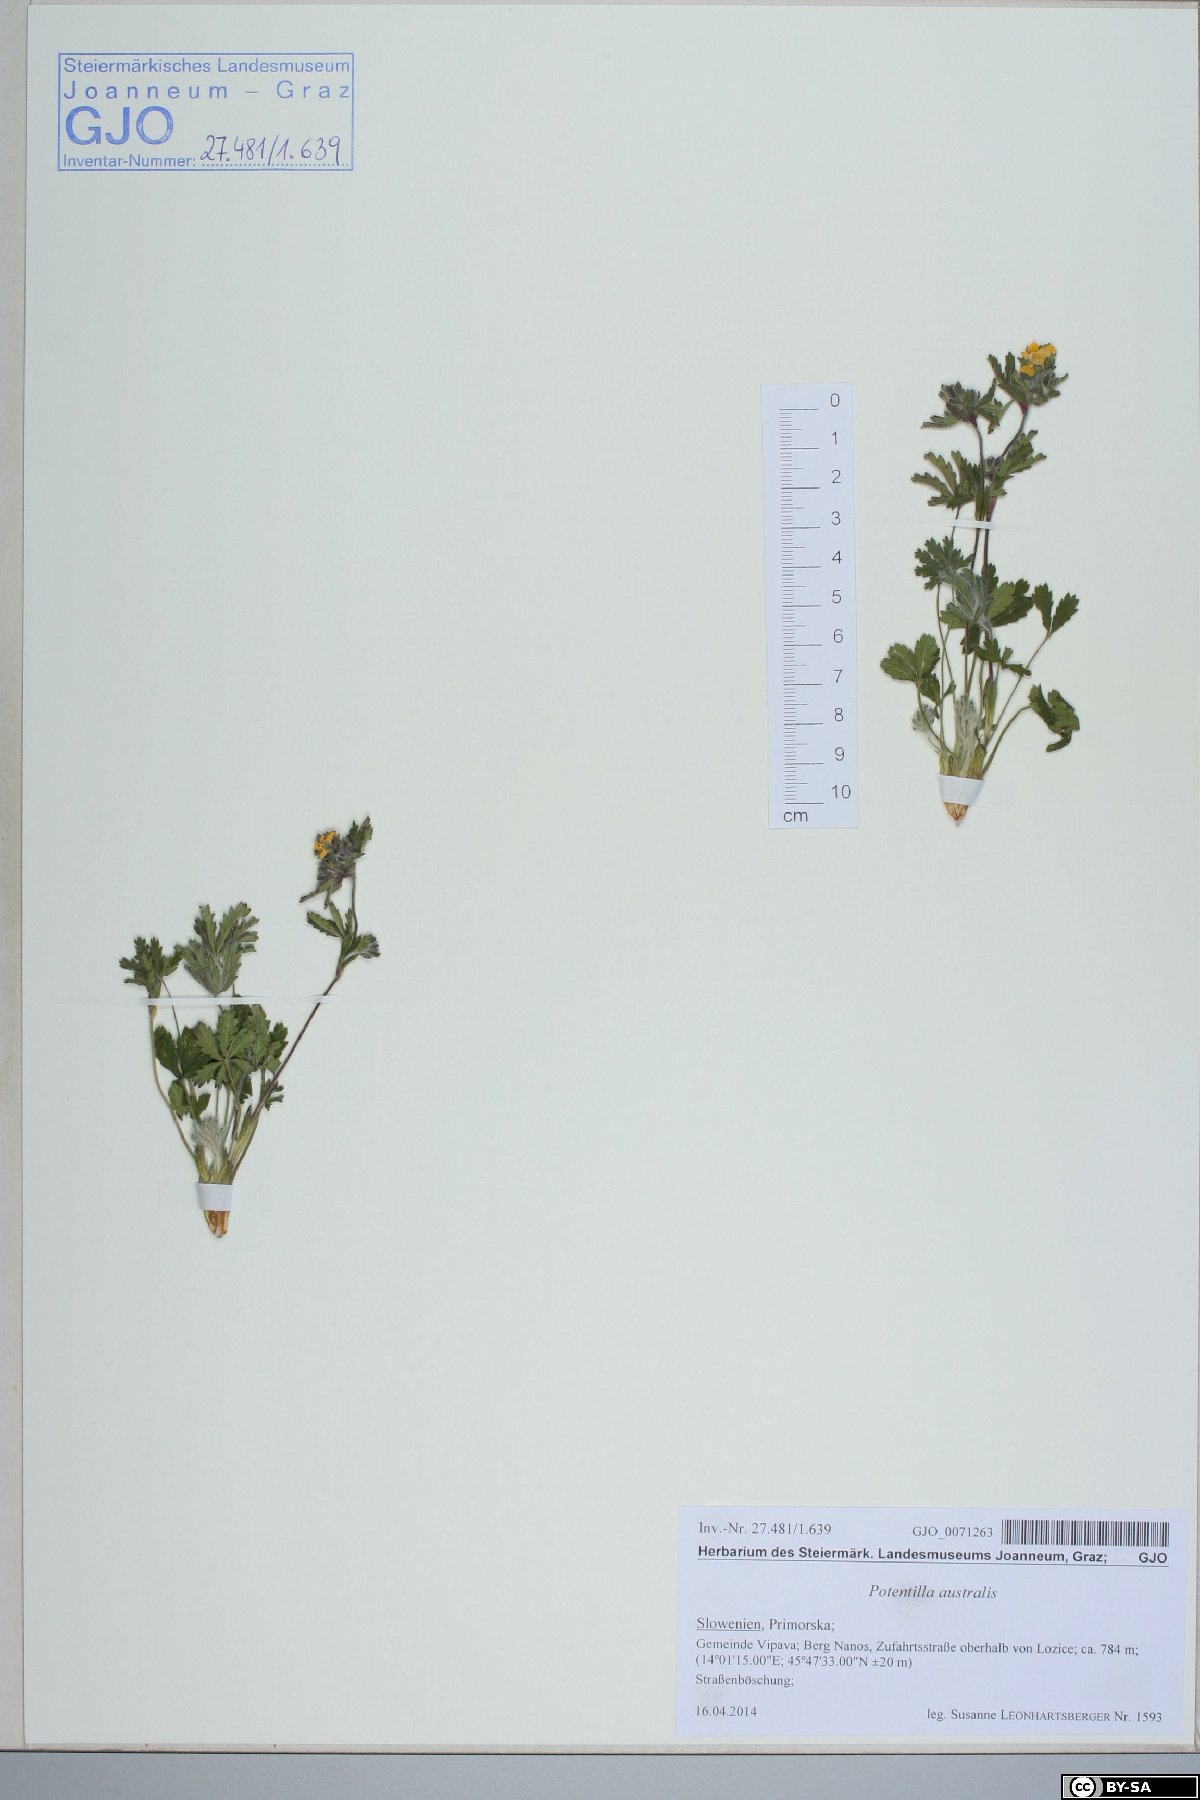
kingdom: Plantae
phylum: Tracheophyta
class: Magnoliopsida
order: Rosales
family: Rosaceae
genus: Potentilla
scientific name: Potentilla heptaphylla
